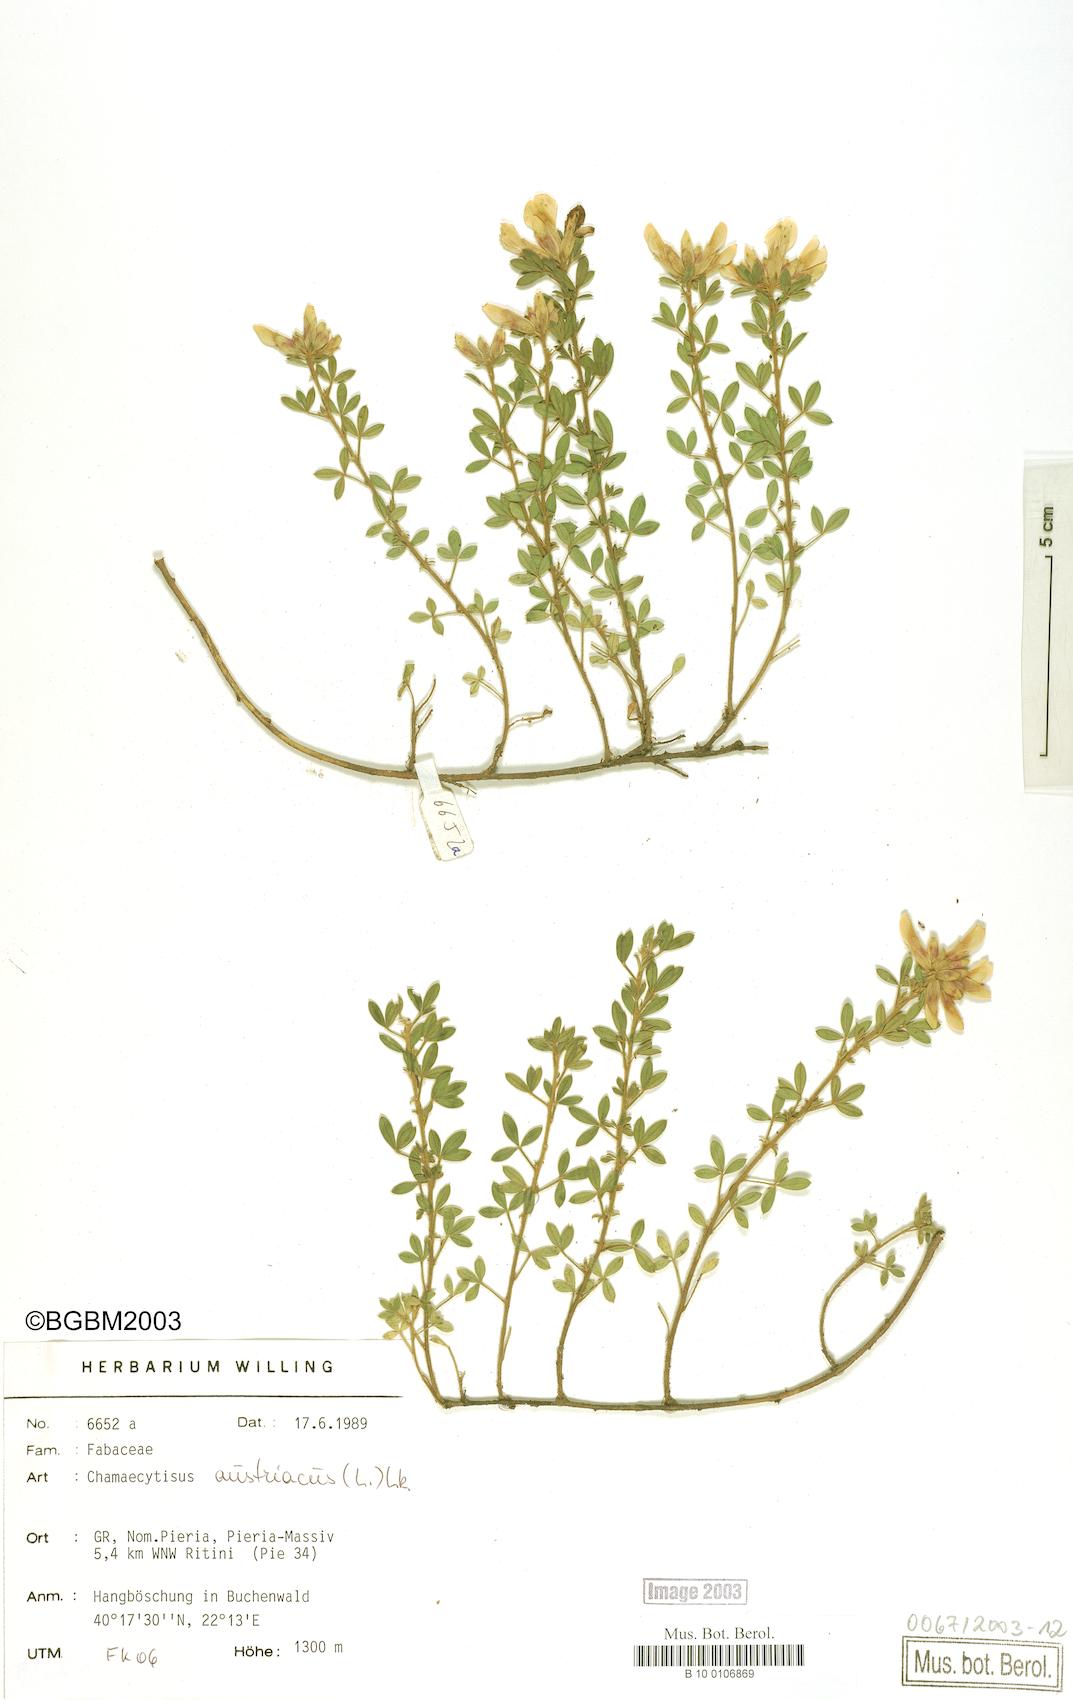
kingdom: Plantae
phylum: Tracheophyta
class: Magnoliopsida
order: Fabales
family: Fabaceae
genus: Chamaecytisus
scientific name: Chamaecytisus austriacus
